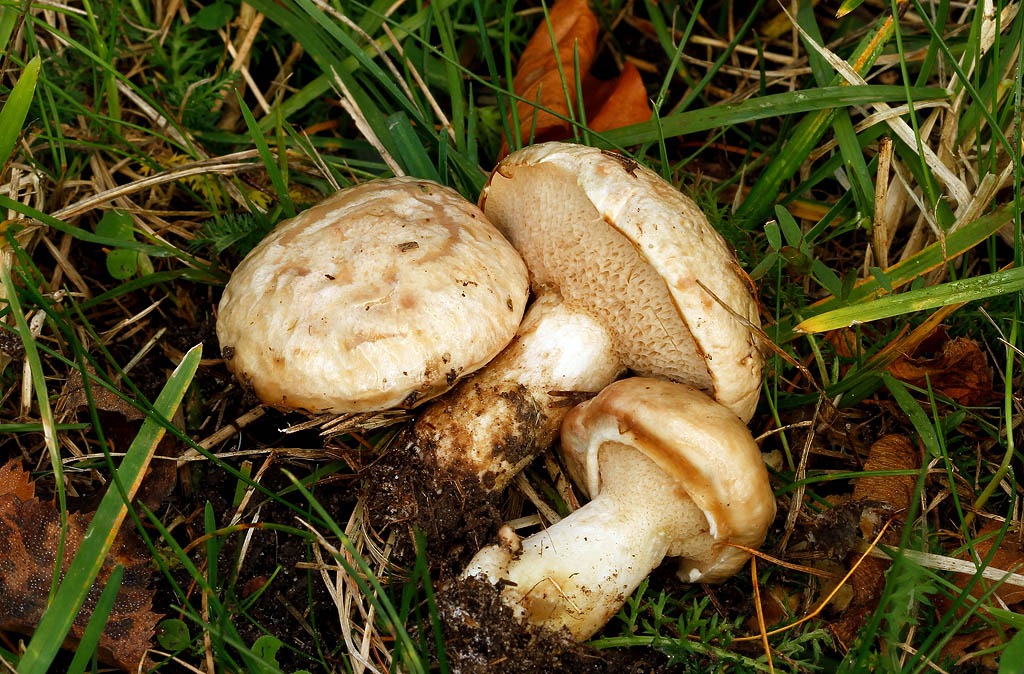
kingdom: Fungi
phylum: Basidiomycota
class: Agaricomycetes
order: Boletales
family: Suillaceae
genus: Suillus
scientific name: Suillus viscidus
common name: olivengrå slimrørhat
